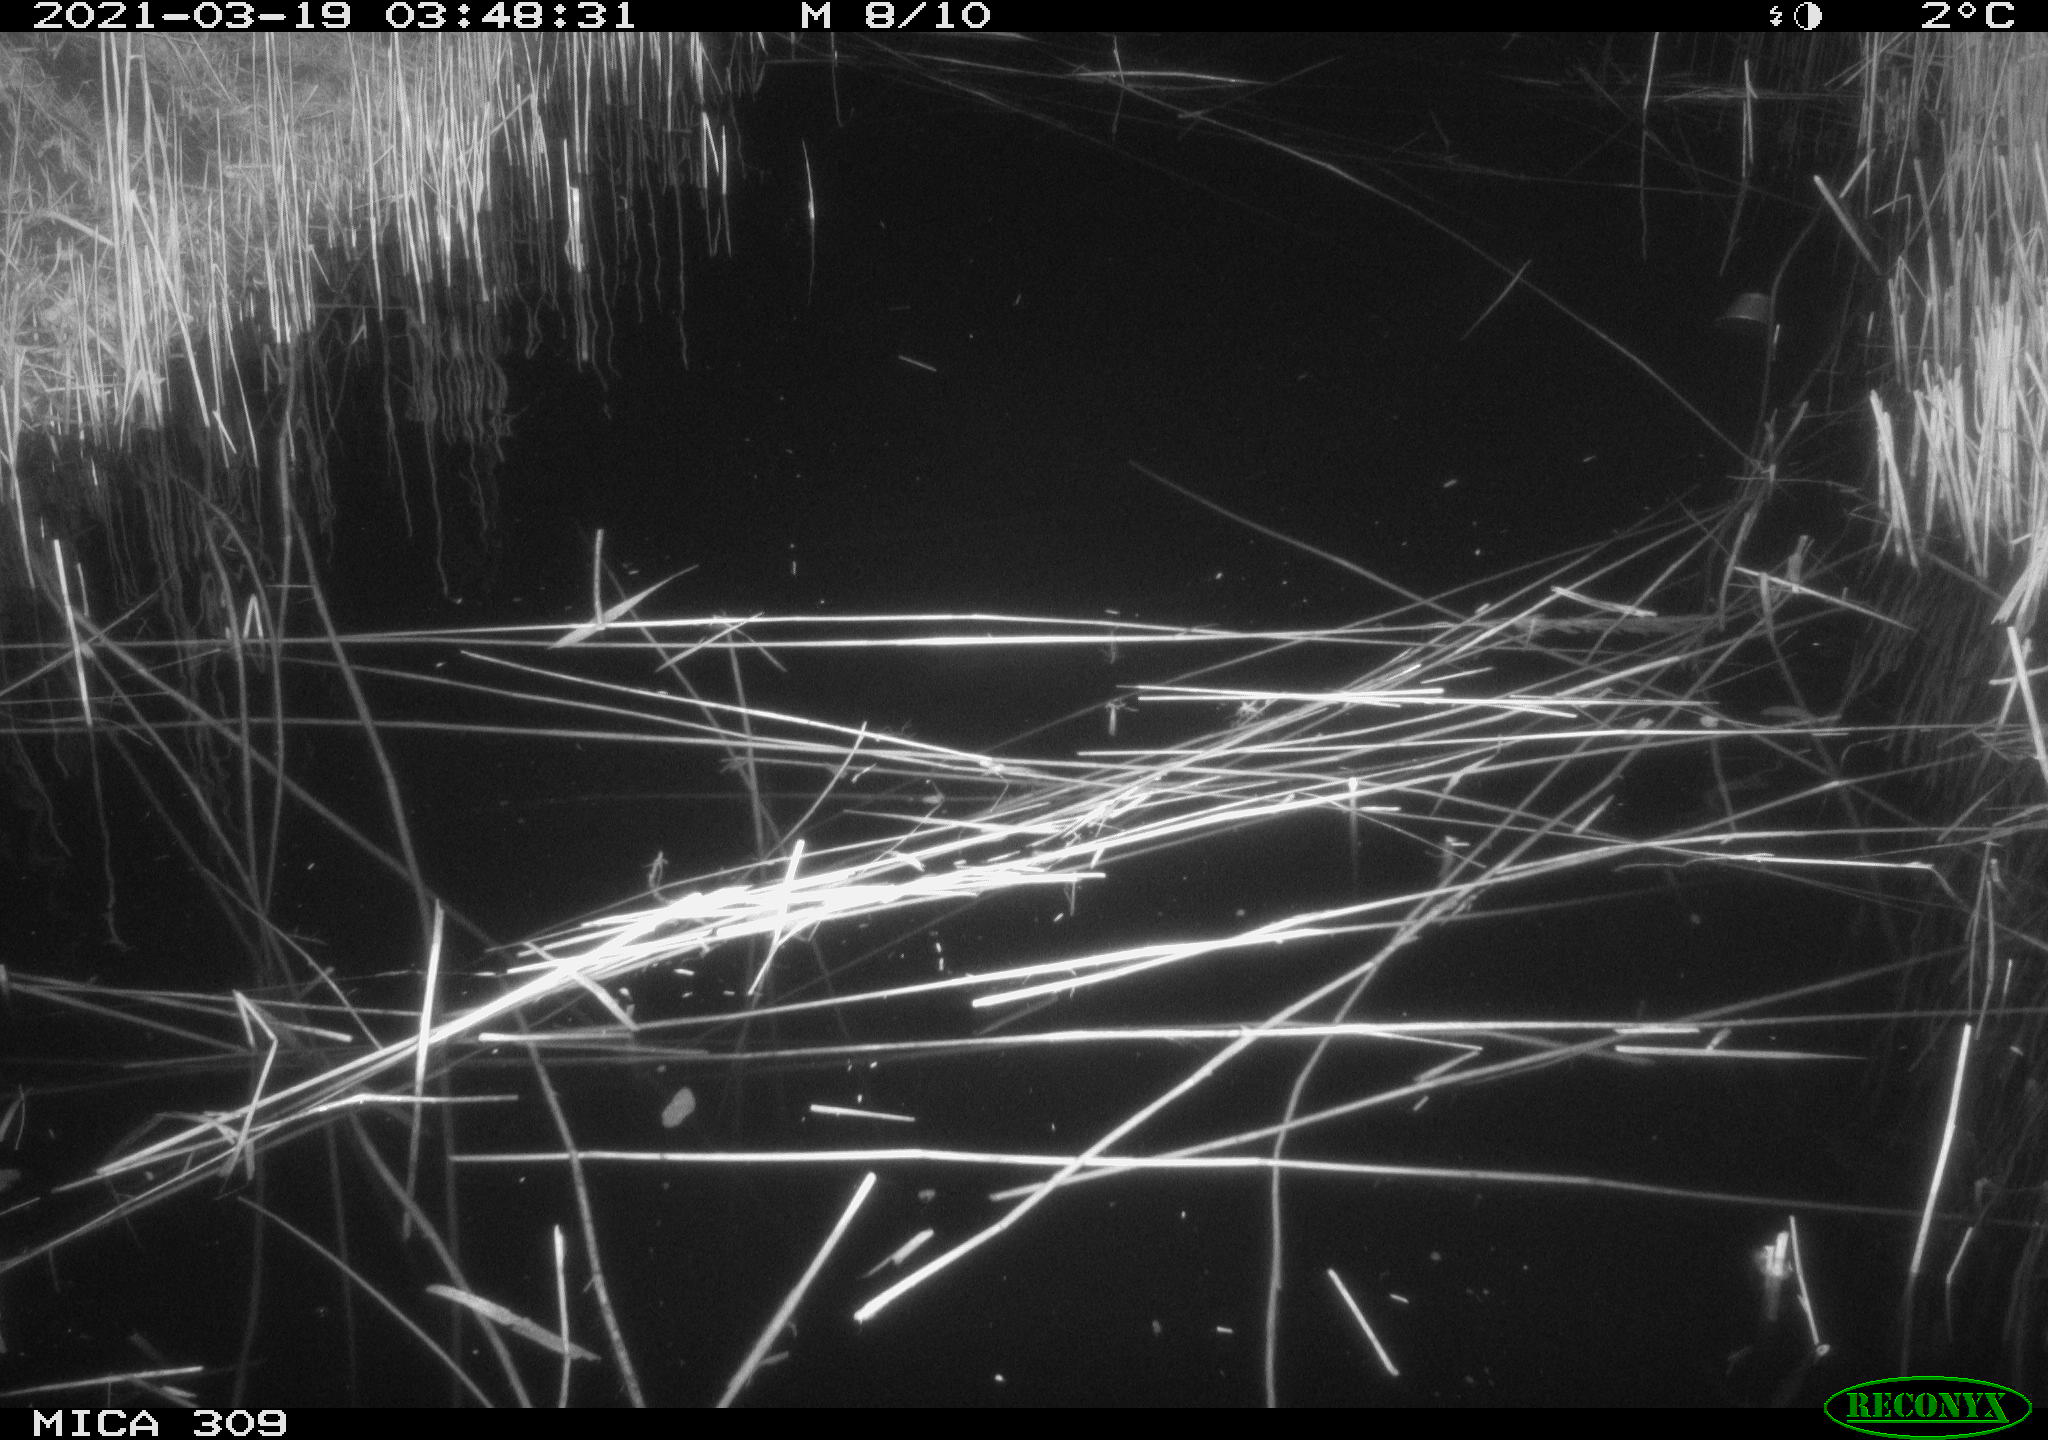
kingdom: Animalia
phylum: Chordata
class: Aves
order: Anseriformes
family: Anatidae
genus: Anas
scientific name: Anas platyrhynchos
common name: Mallard
